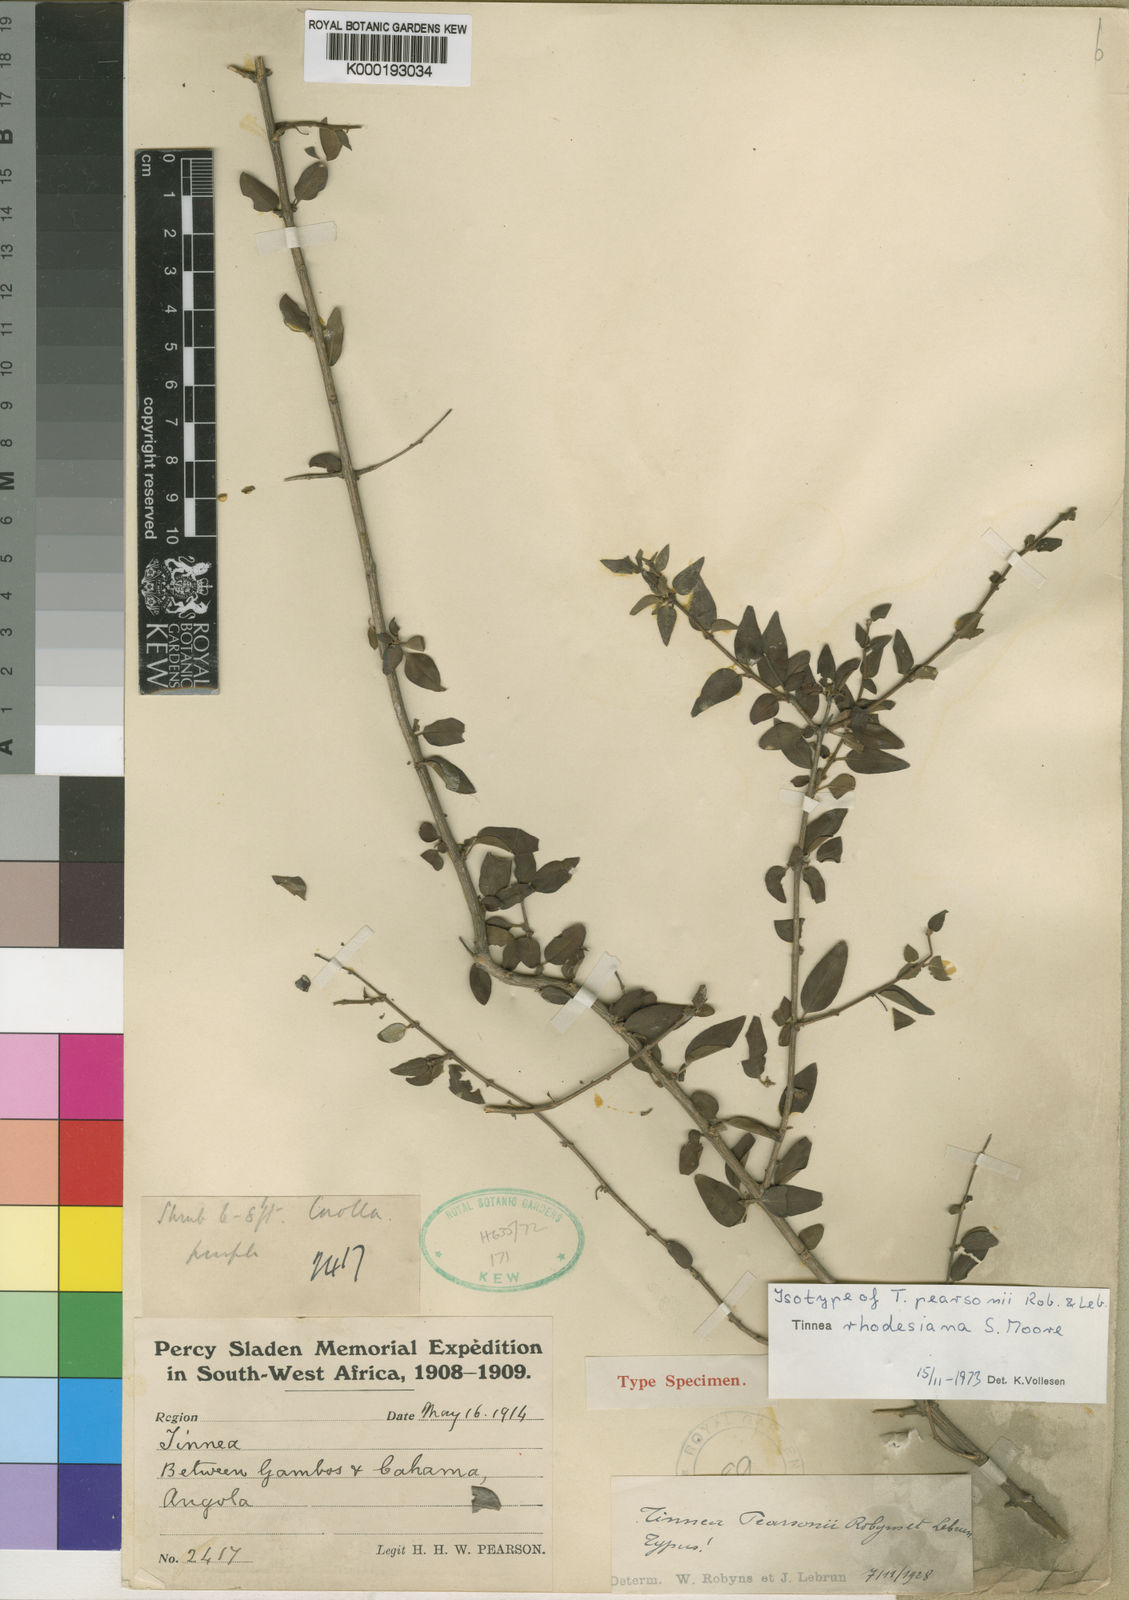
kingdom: Plantae
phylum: Tracheophyta
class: Magnoliopsida
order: Lamiales
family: Lamiaceae
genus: Tinnea
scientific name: Tinnea rhodesiana
